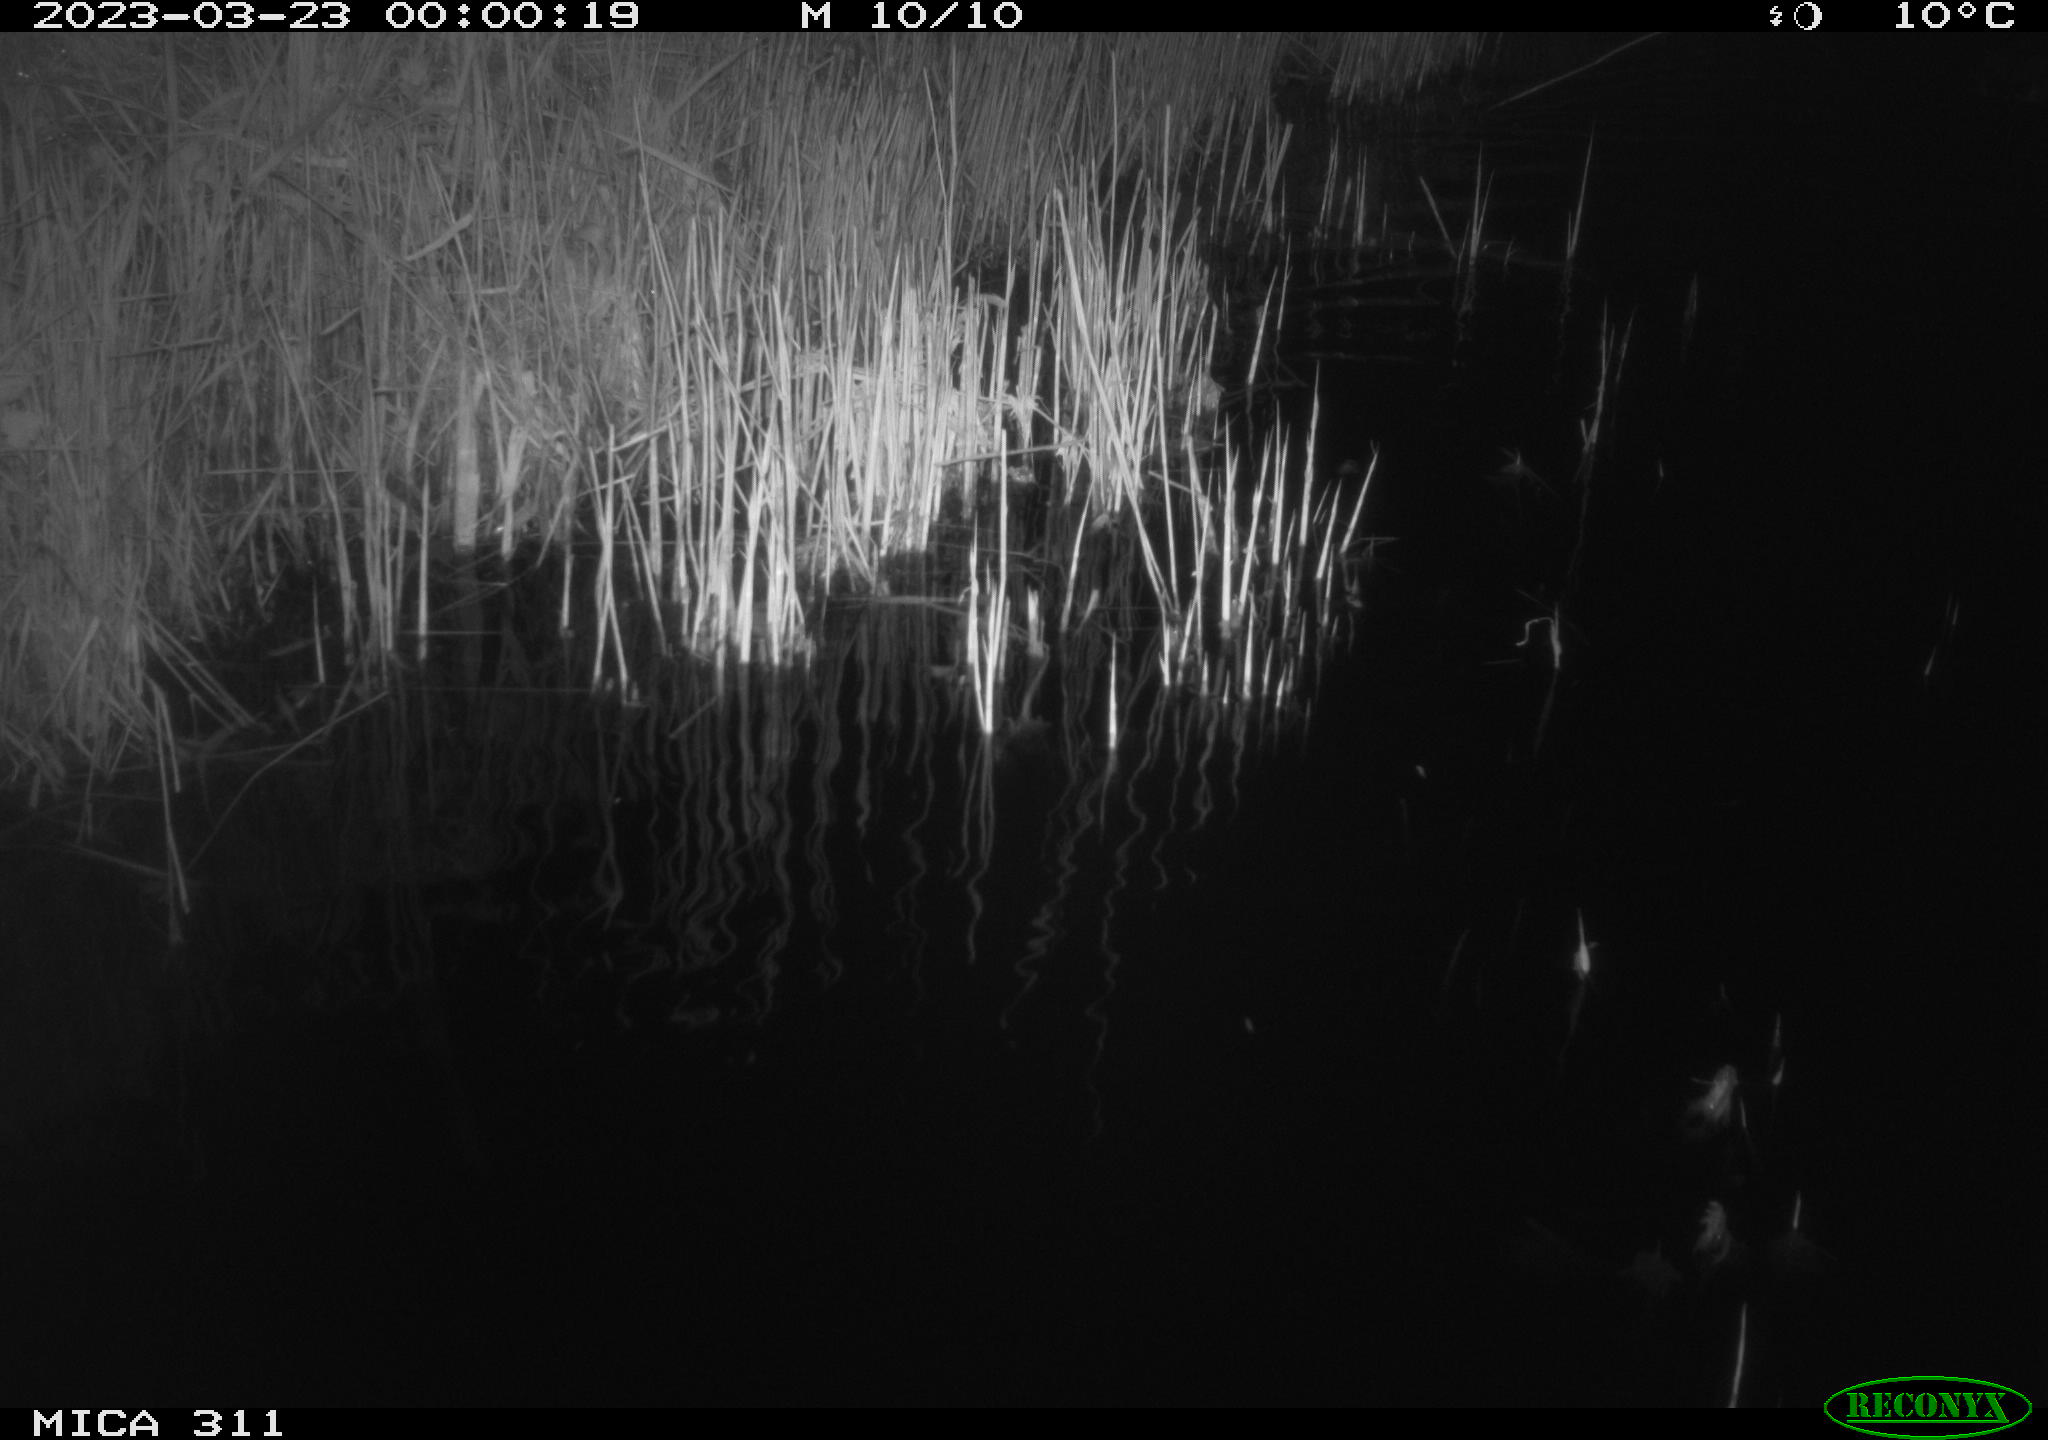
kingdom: Animalia
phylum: Chordata
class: Aves
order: Anseriformes
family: Anatidae
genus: Anas
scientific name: Anas
